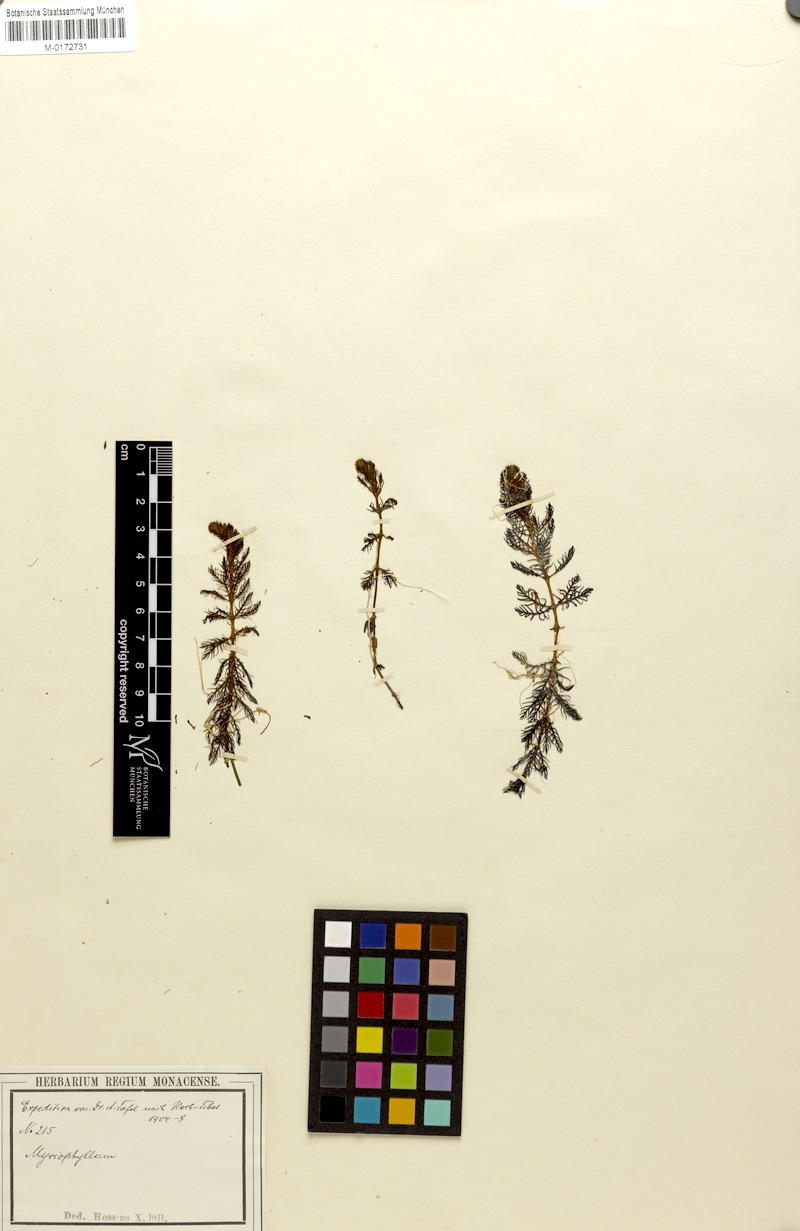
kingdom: Plantae
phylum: Tracheophyta
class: Magnoliopsida
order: Saxifragales
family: Haloragaceae
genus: Myriophyllum
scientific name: Myriophyllum verticillatum
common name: Whorled water-milfoil
